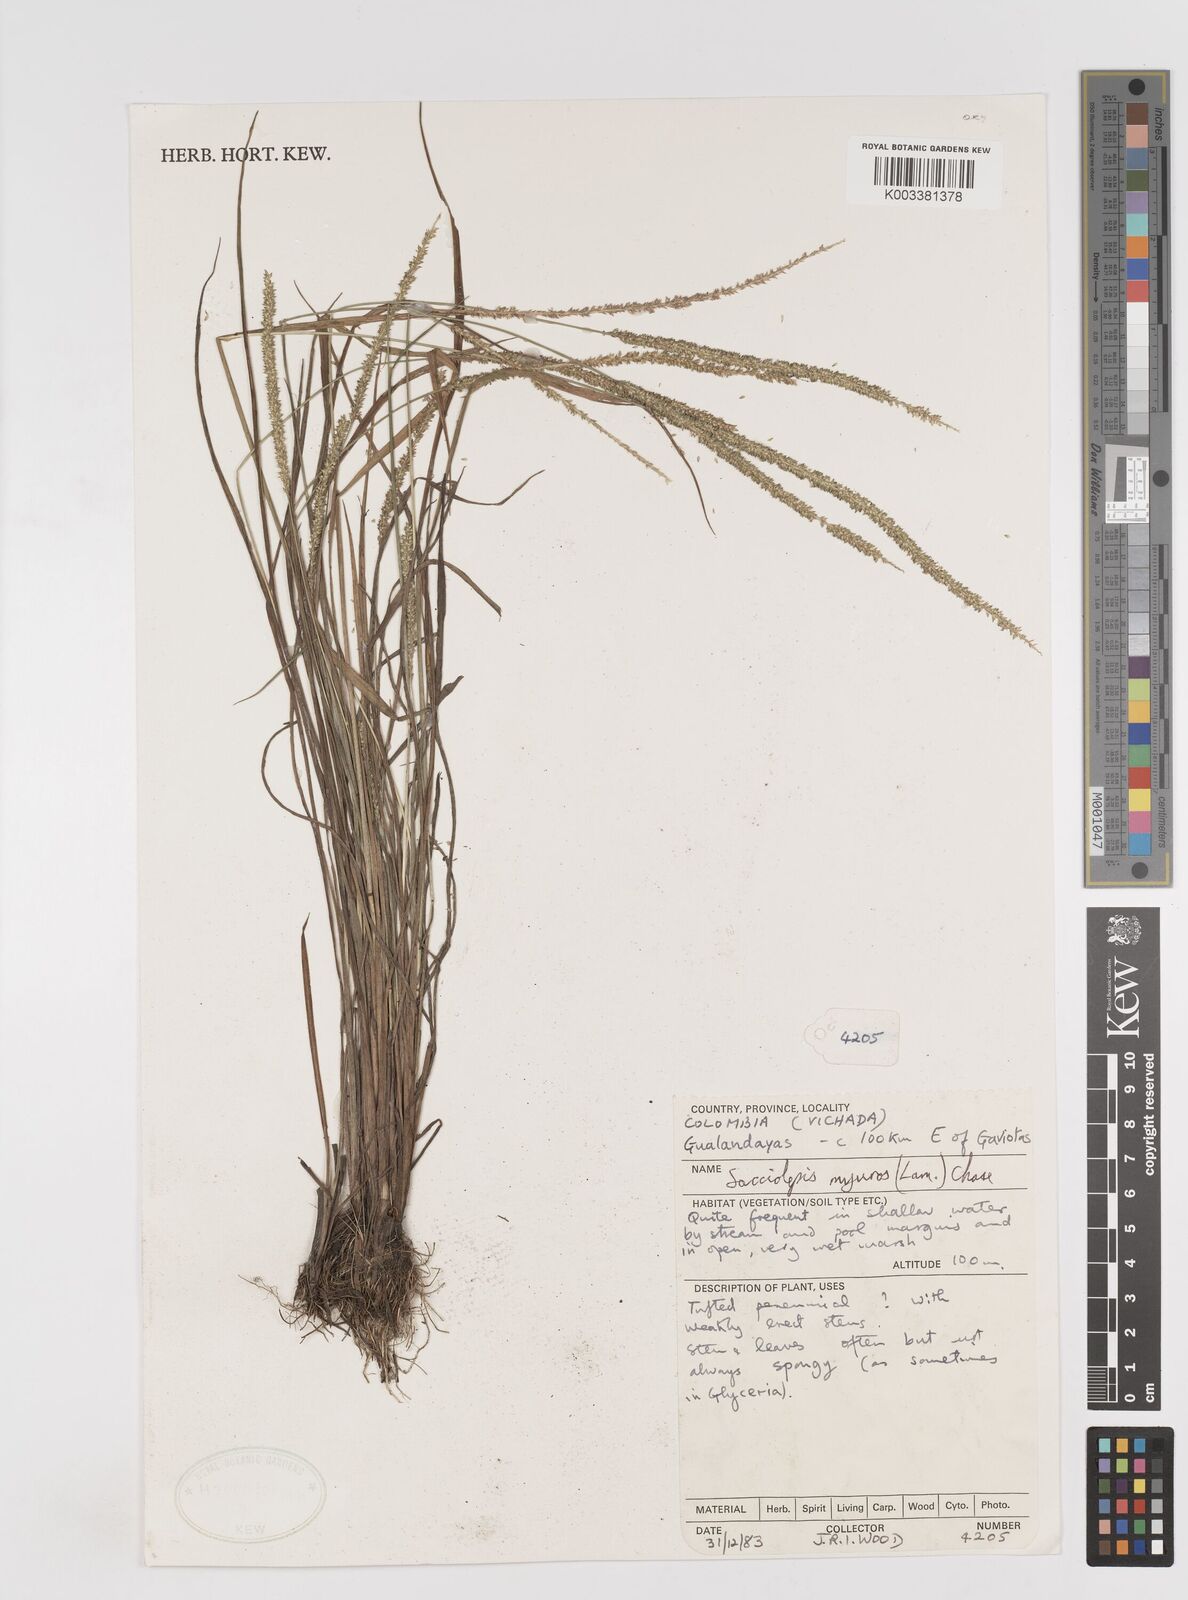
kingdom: Plantae
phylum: Tracheophyta
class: Liliopsida
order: Poales
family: Poaceae
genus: Sacciolepis
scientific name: Sacciolepis myuros
